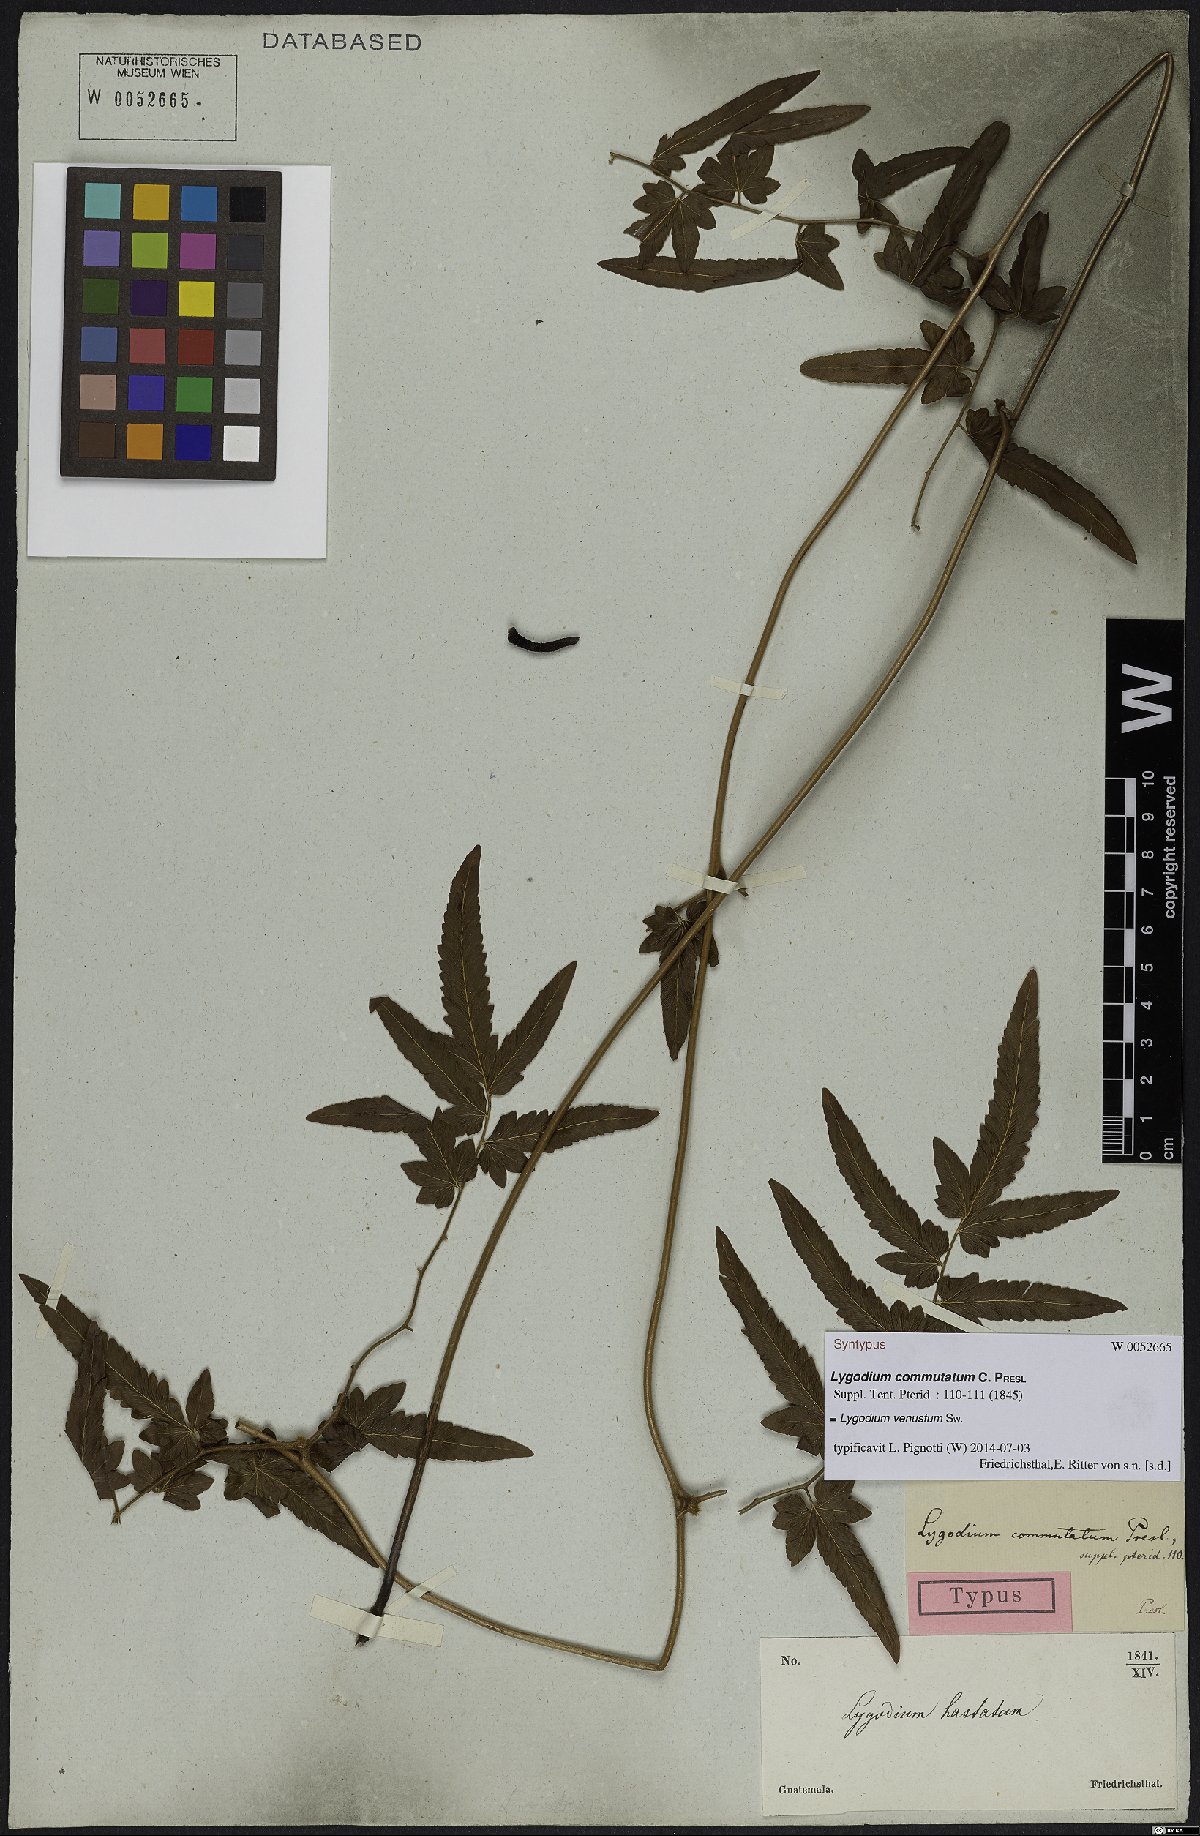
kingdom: Plantae
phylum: Tracheophyta
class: Polypodiopsida
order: Schizaeales
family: Lygodiaceae
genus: Lygodium
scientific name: Lygodium venustum
